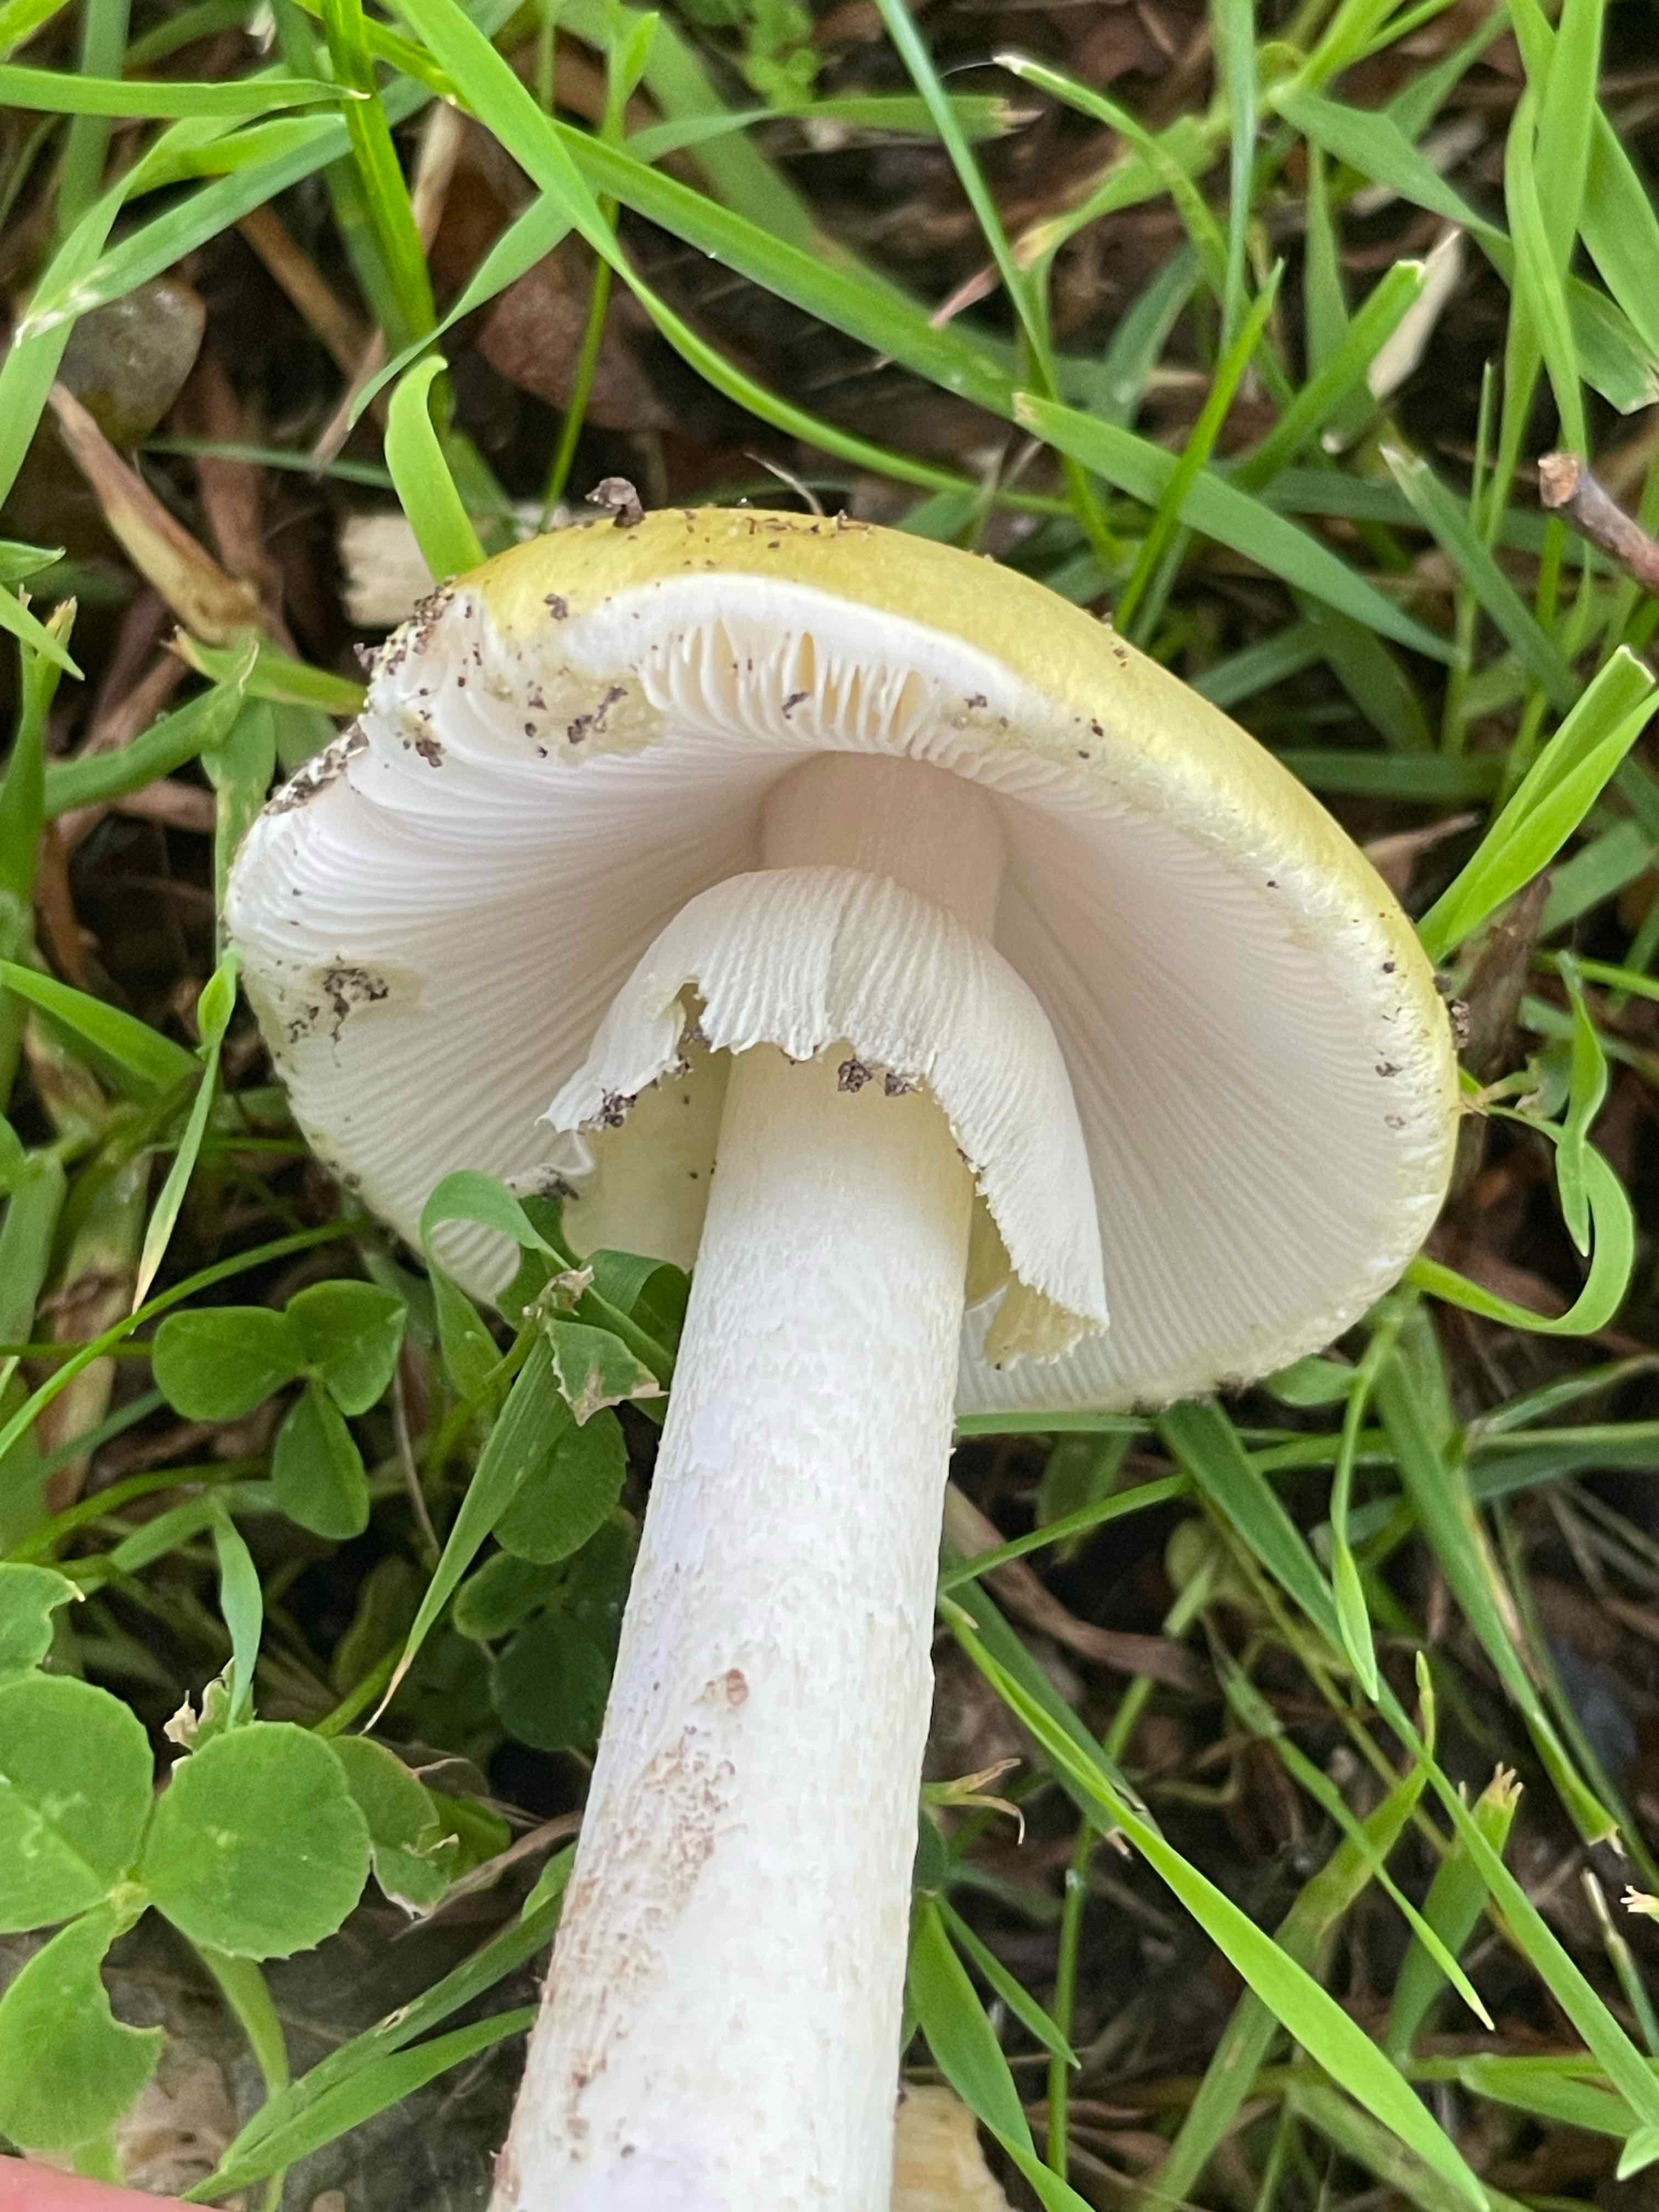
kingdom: Fungi
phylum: Basidiomycota
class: Agaricomycetes
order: Agaricales
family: Amanitaceae
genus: Amanita
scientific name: Amanita phalloides
